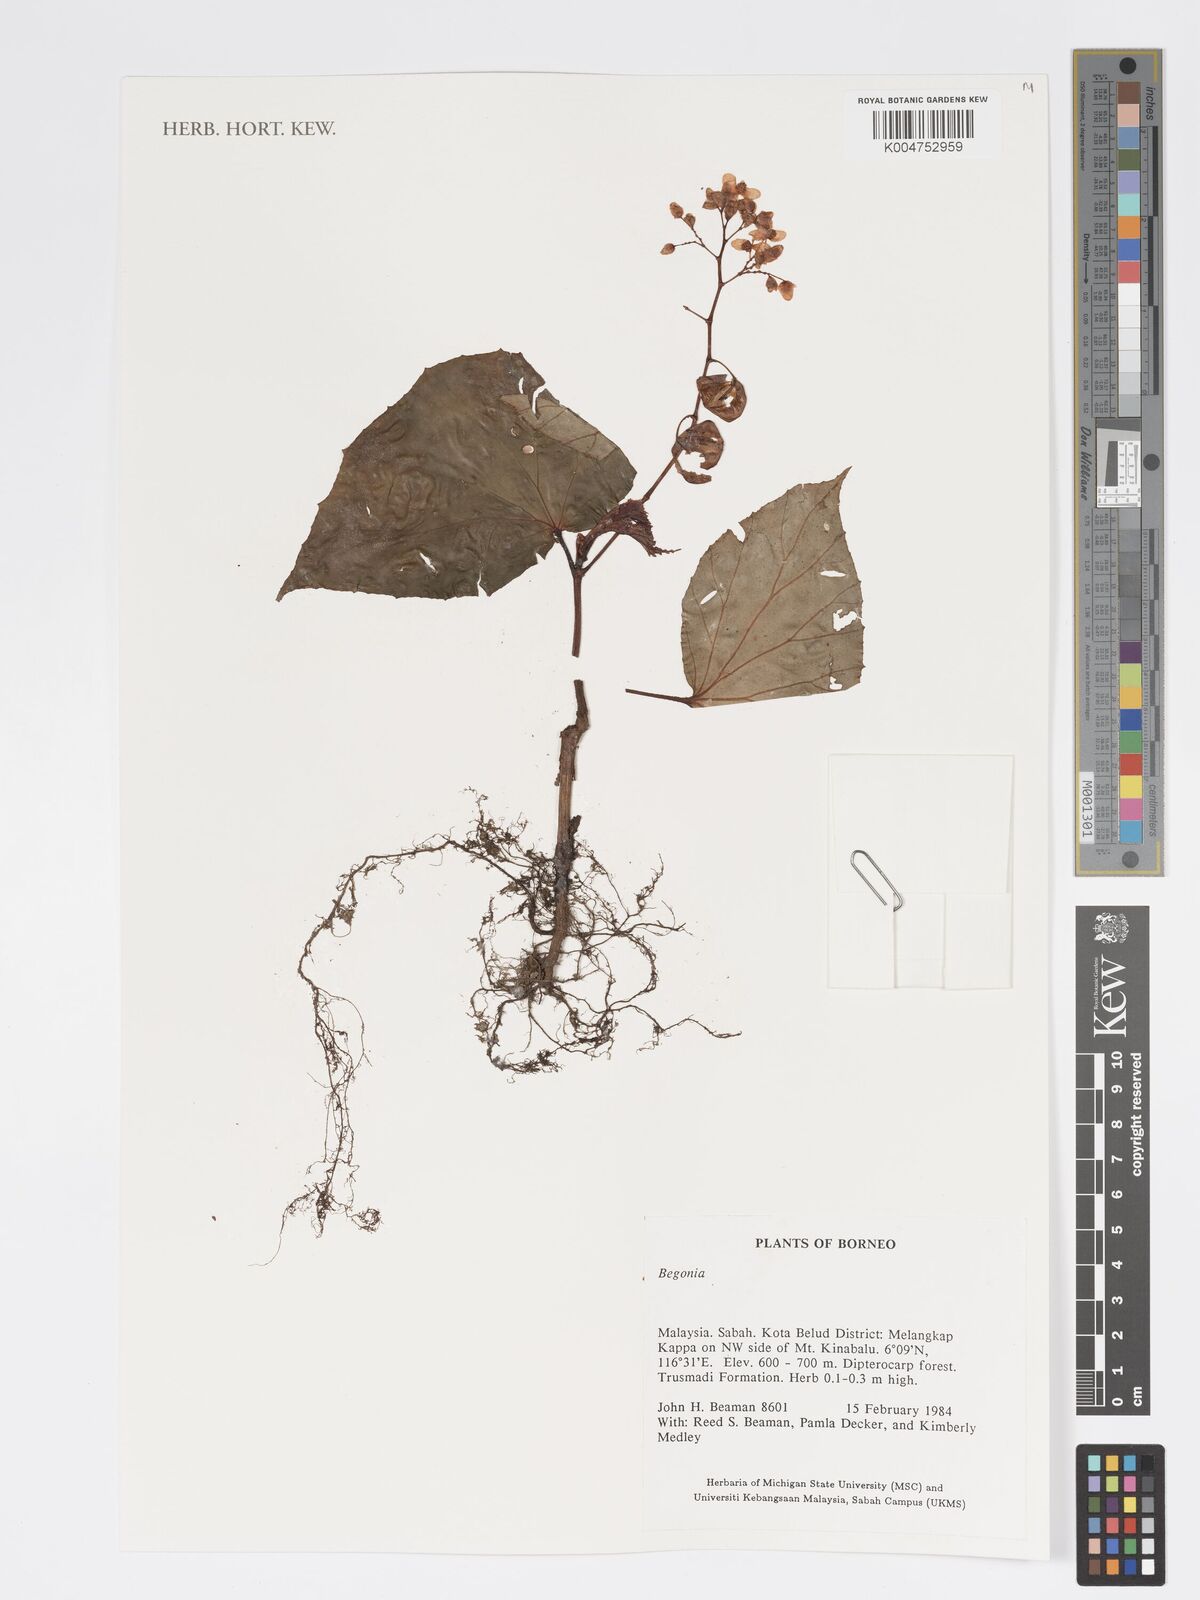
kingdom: Plantae
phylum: Tracheophyta
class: Magnoliopsida
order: Cucurbitales
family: Begoniaceae
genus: Begonia
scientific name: Begonia
